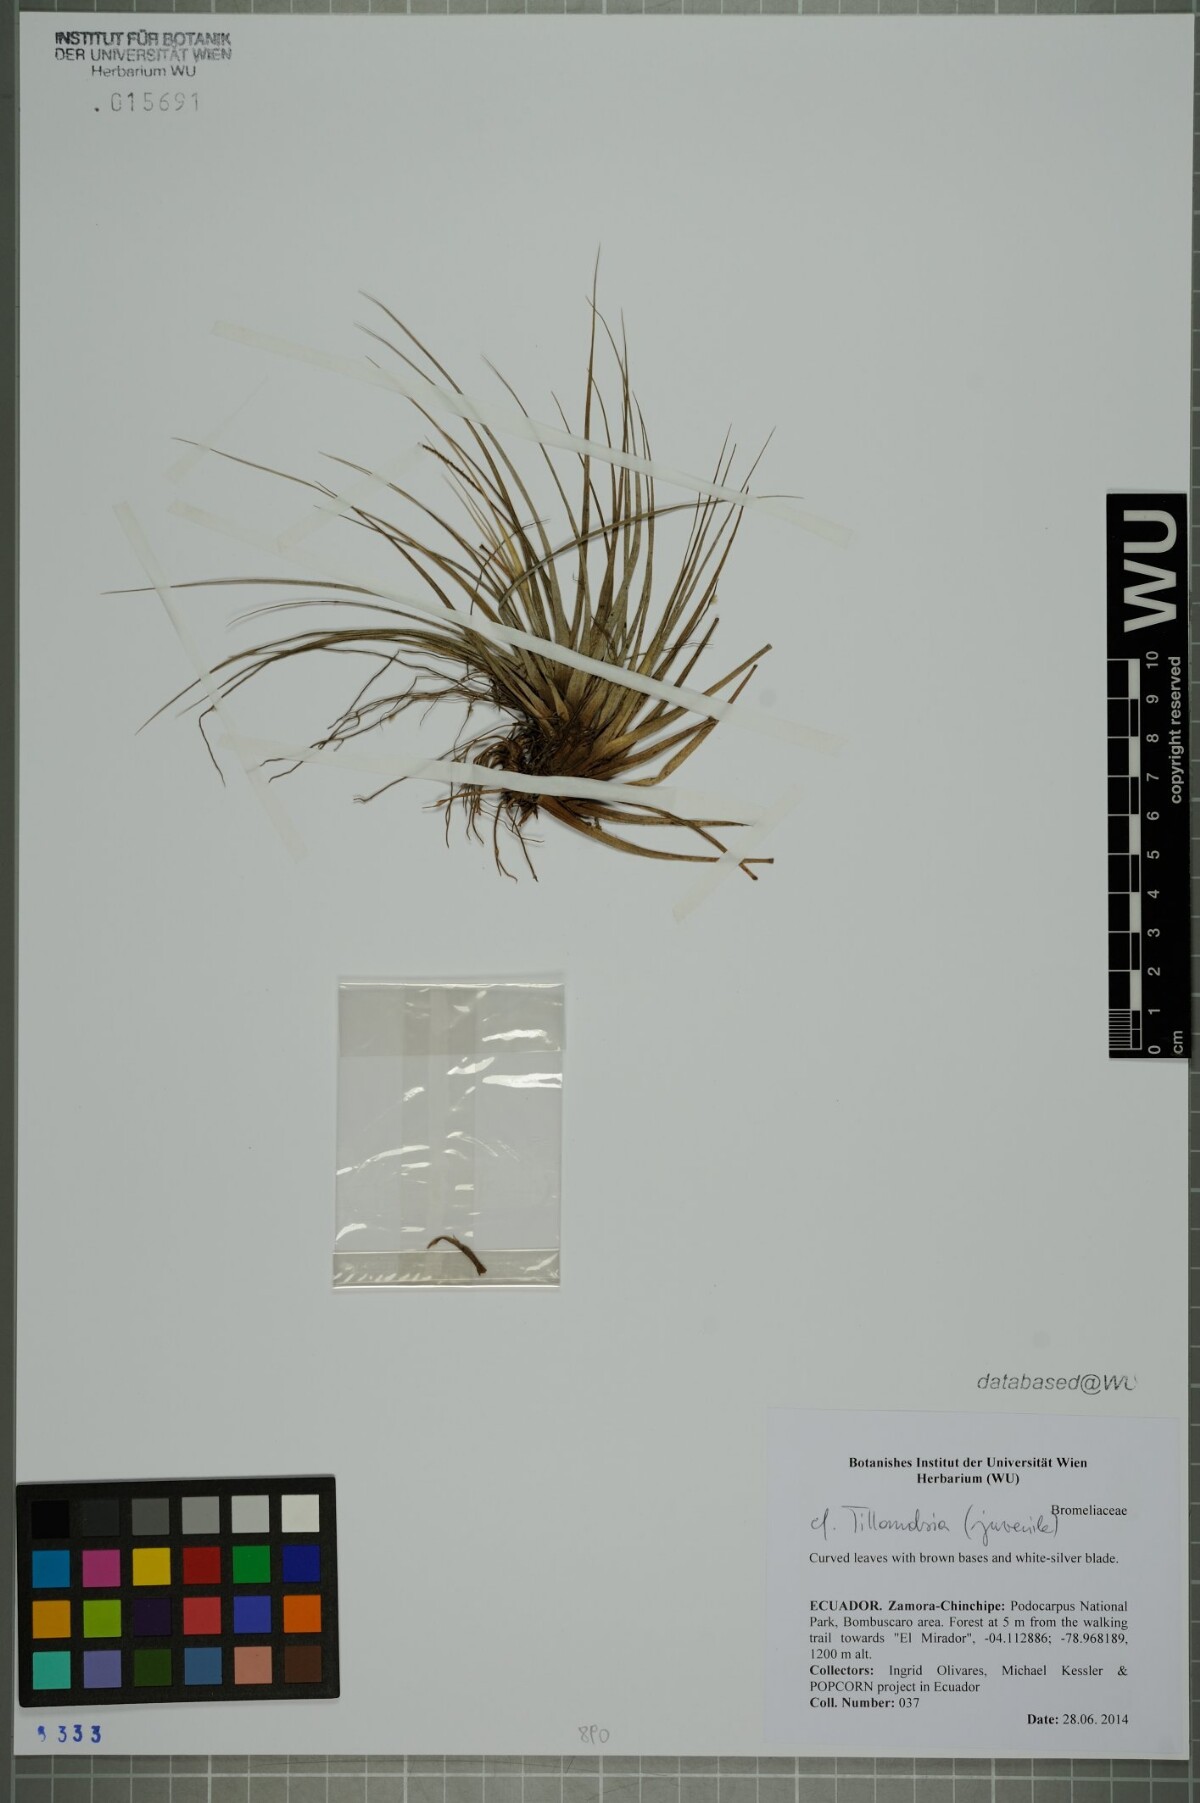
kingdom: Plantae
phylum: Tracheophyta
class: Liliopsida
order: Poales
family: Bromeliaceae
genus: Tillandsia
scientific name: Tillandsia
